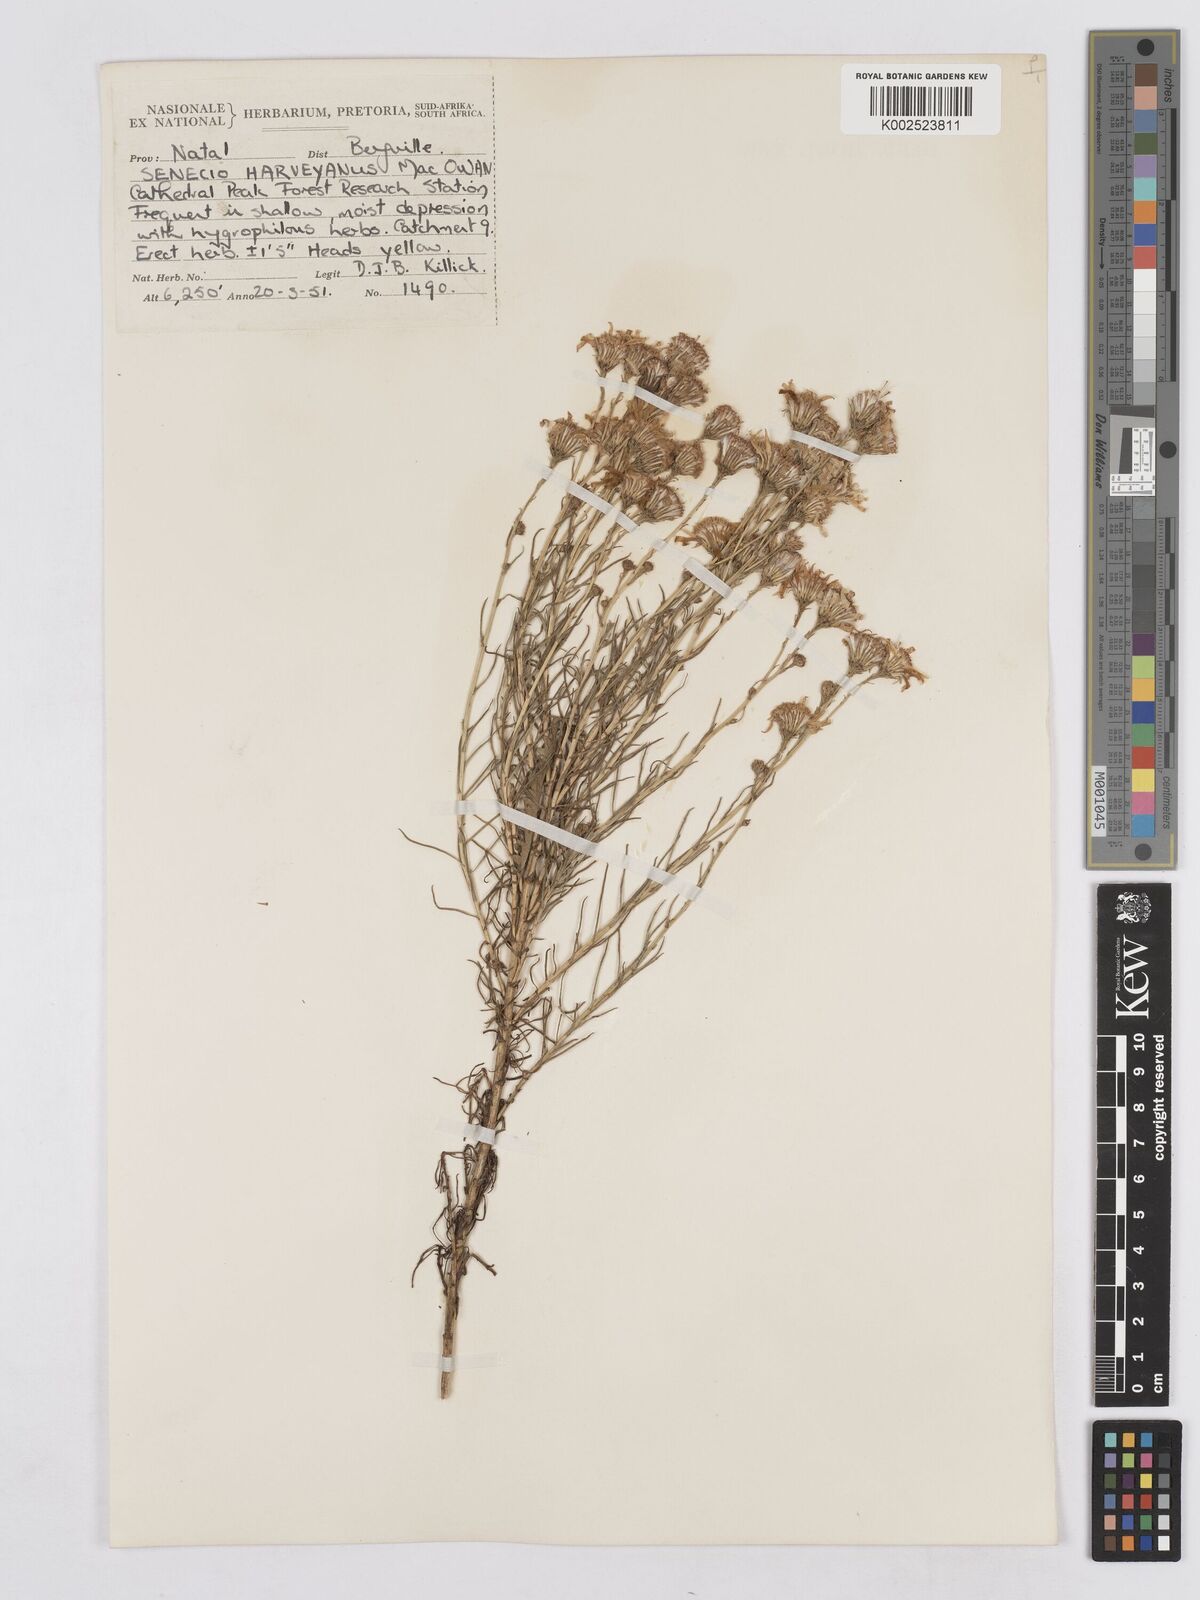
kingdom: Plantae
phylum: Tracheophyta
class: Magnoliopsida
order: Asterales
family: Asteraceae
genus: Senecio
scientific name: Senecio harveyanus
